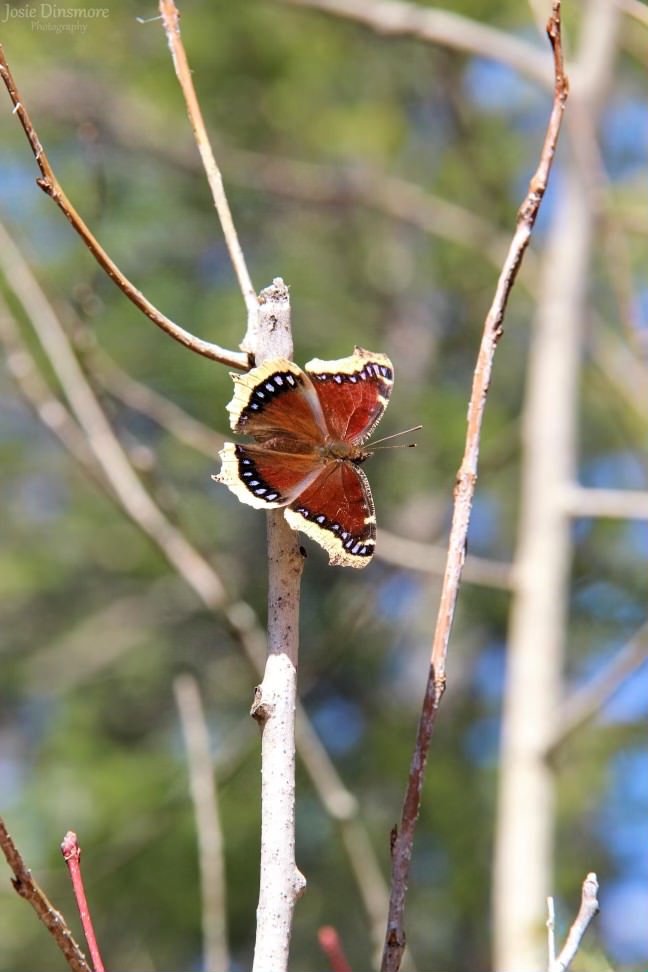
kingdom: Animalia
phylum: Arthropoda
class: Insecta
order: Lepidoptera
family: Nymphalidae
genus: Nymphalis
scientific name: Nymphalis antiopa
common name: Mourning Cloak
